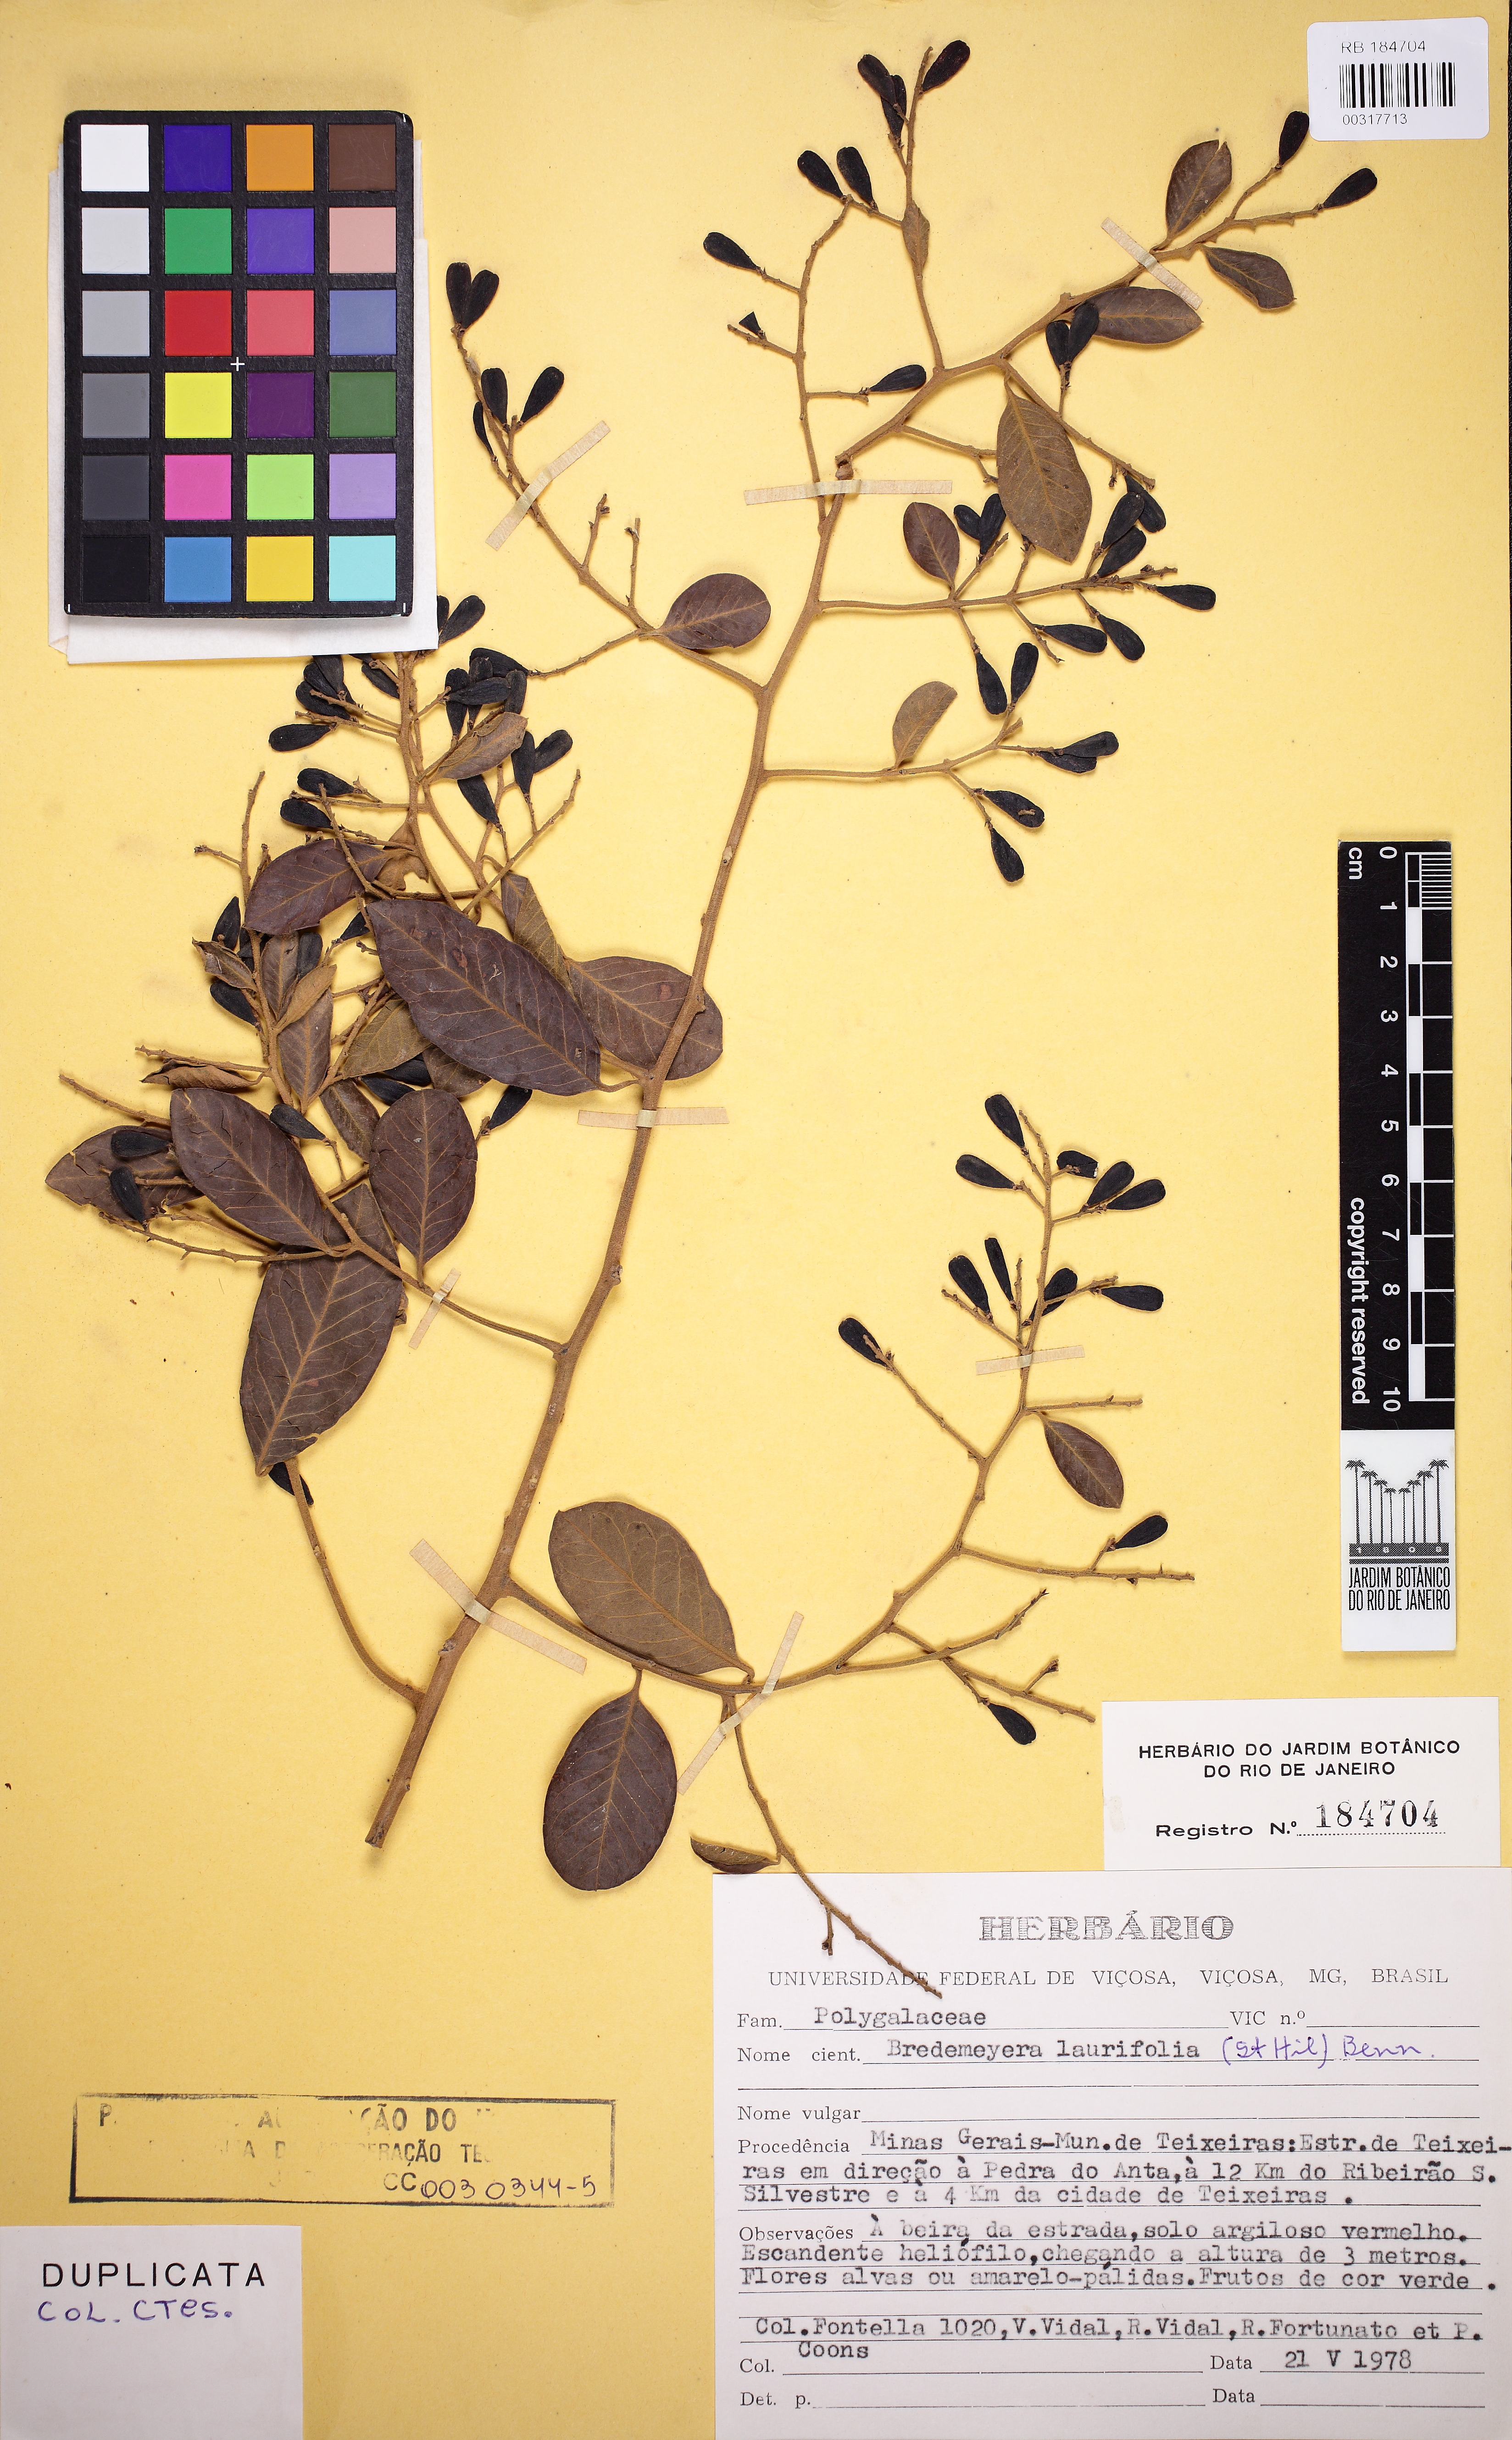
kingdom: Plantae
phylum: Tracheophyta
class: Magnoliopsida
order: Fabales
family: Polygalaceae
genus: Bredemeyera
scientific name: Bredemeyera laurifolia
